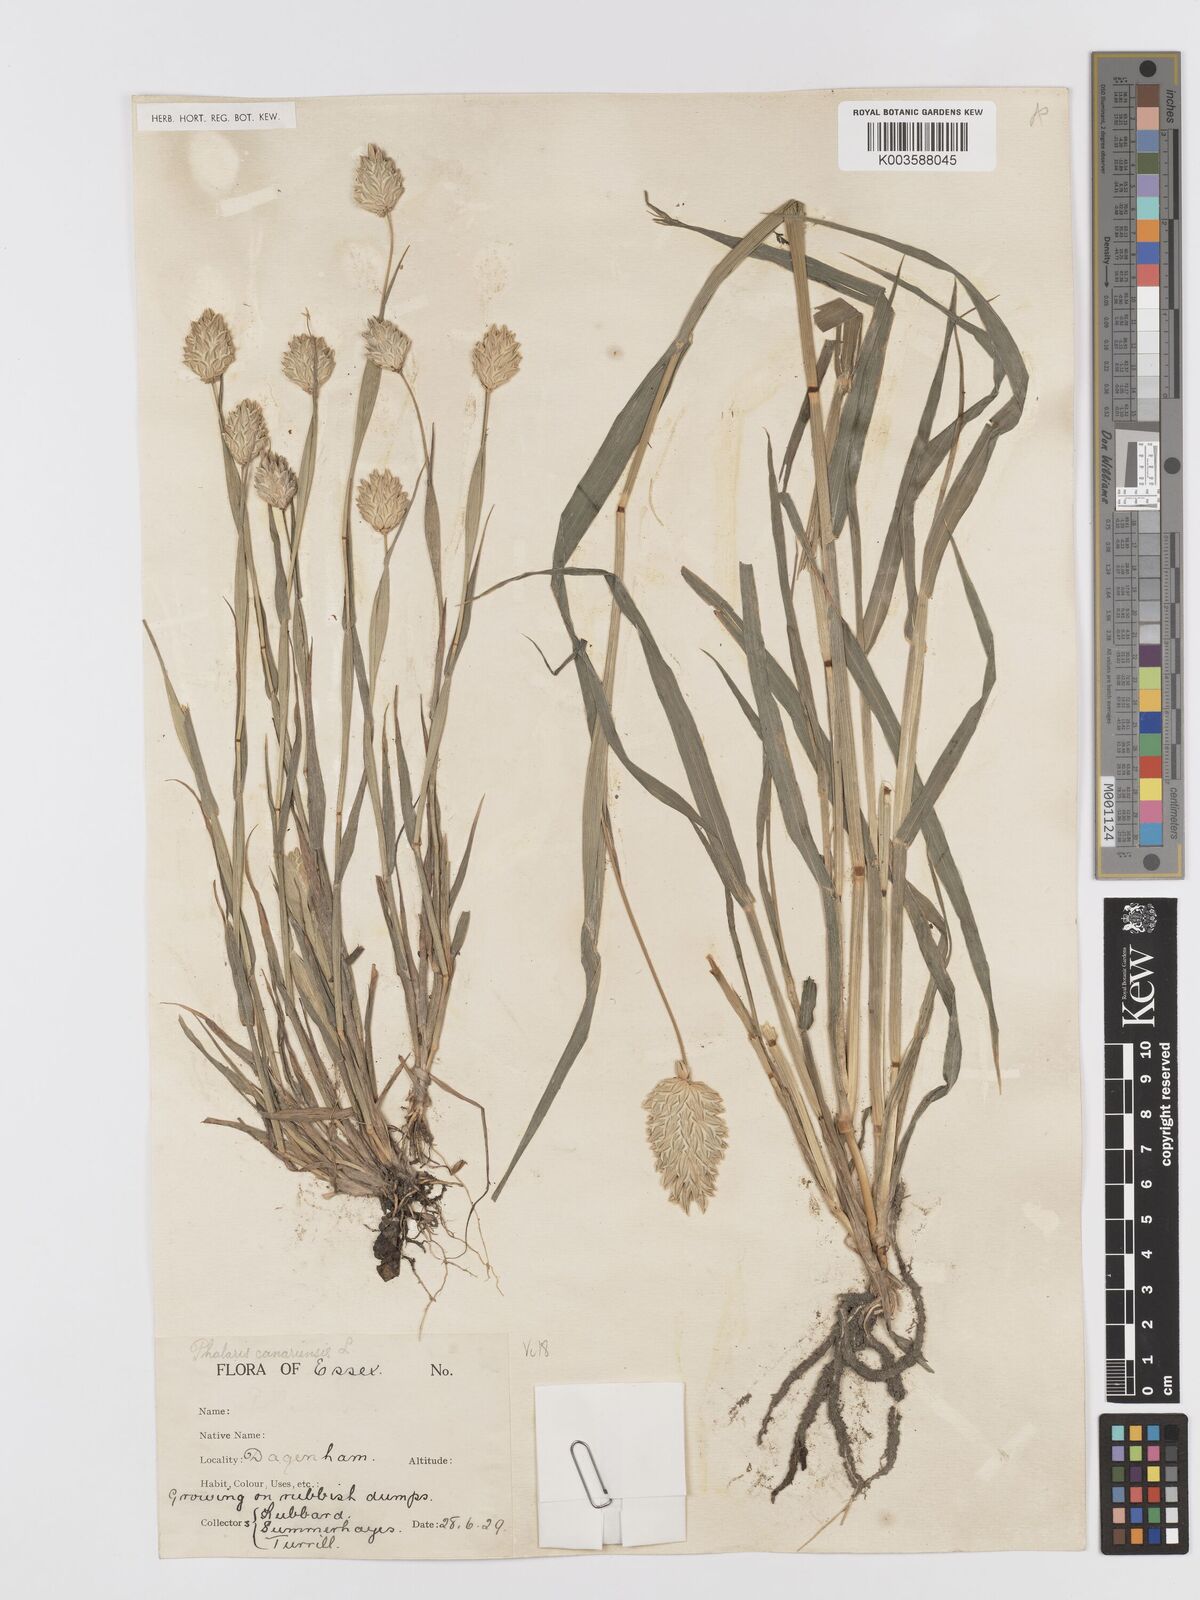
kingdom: Plantae
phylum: Tracheophyta
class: Liliopsida
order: Poales
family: Poaceae
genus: Phalaris
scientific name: Phalaris canariensis
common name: Annual canarygrass
